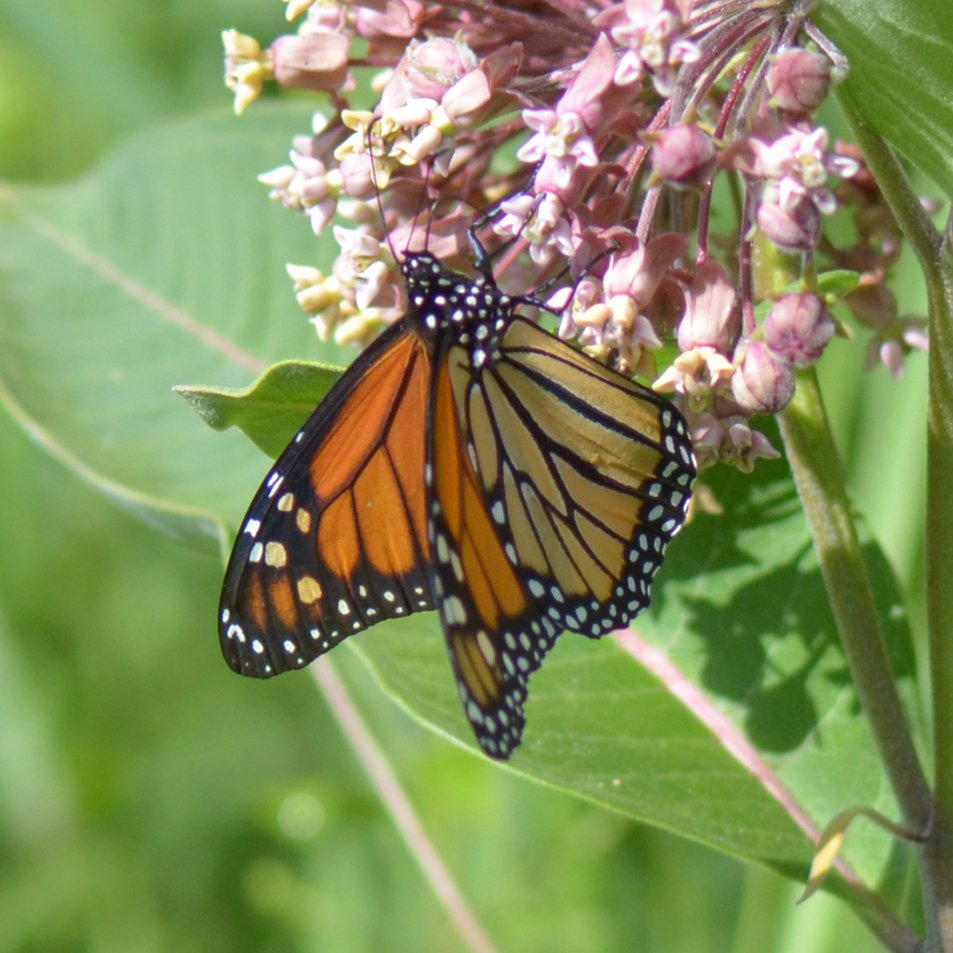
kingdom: Animalia
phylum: Arthropoda
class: Insecta
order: Lepidoptera
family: Nymphalidae
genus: Danaus
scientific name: Danaus plexippus
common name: Monarch
